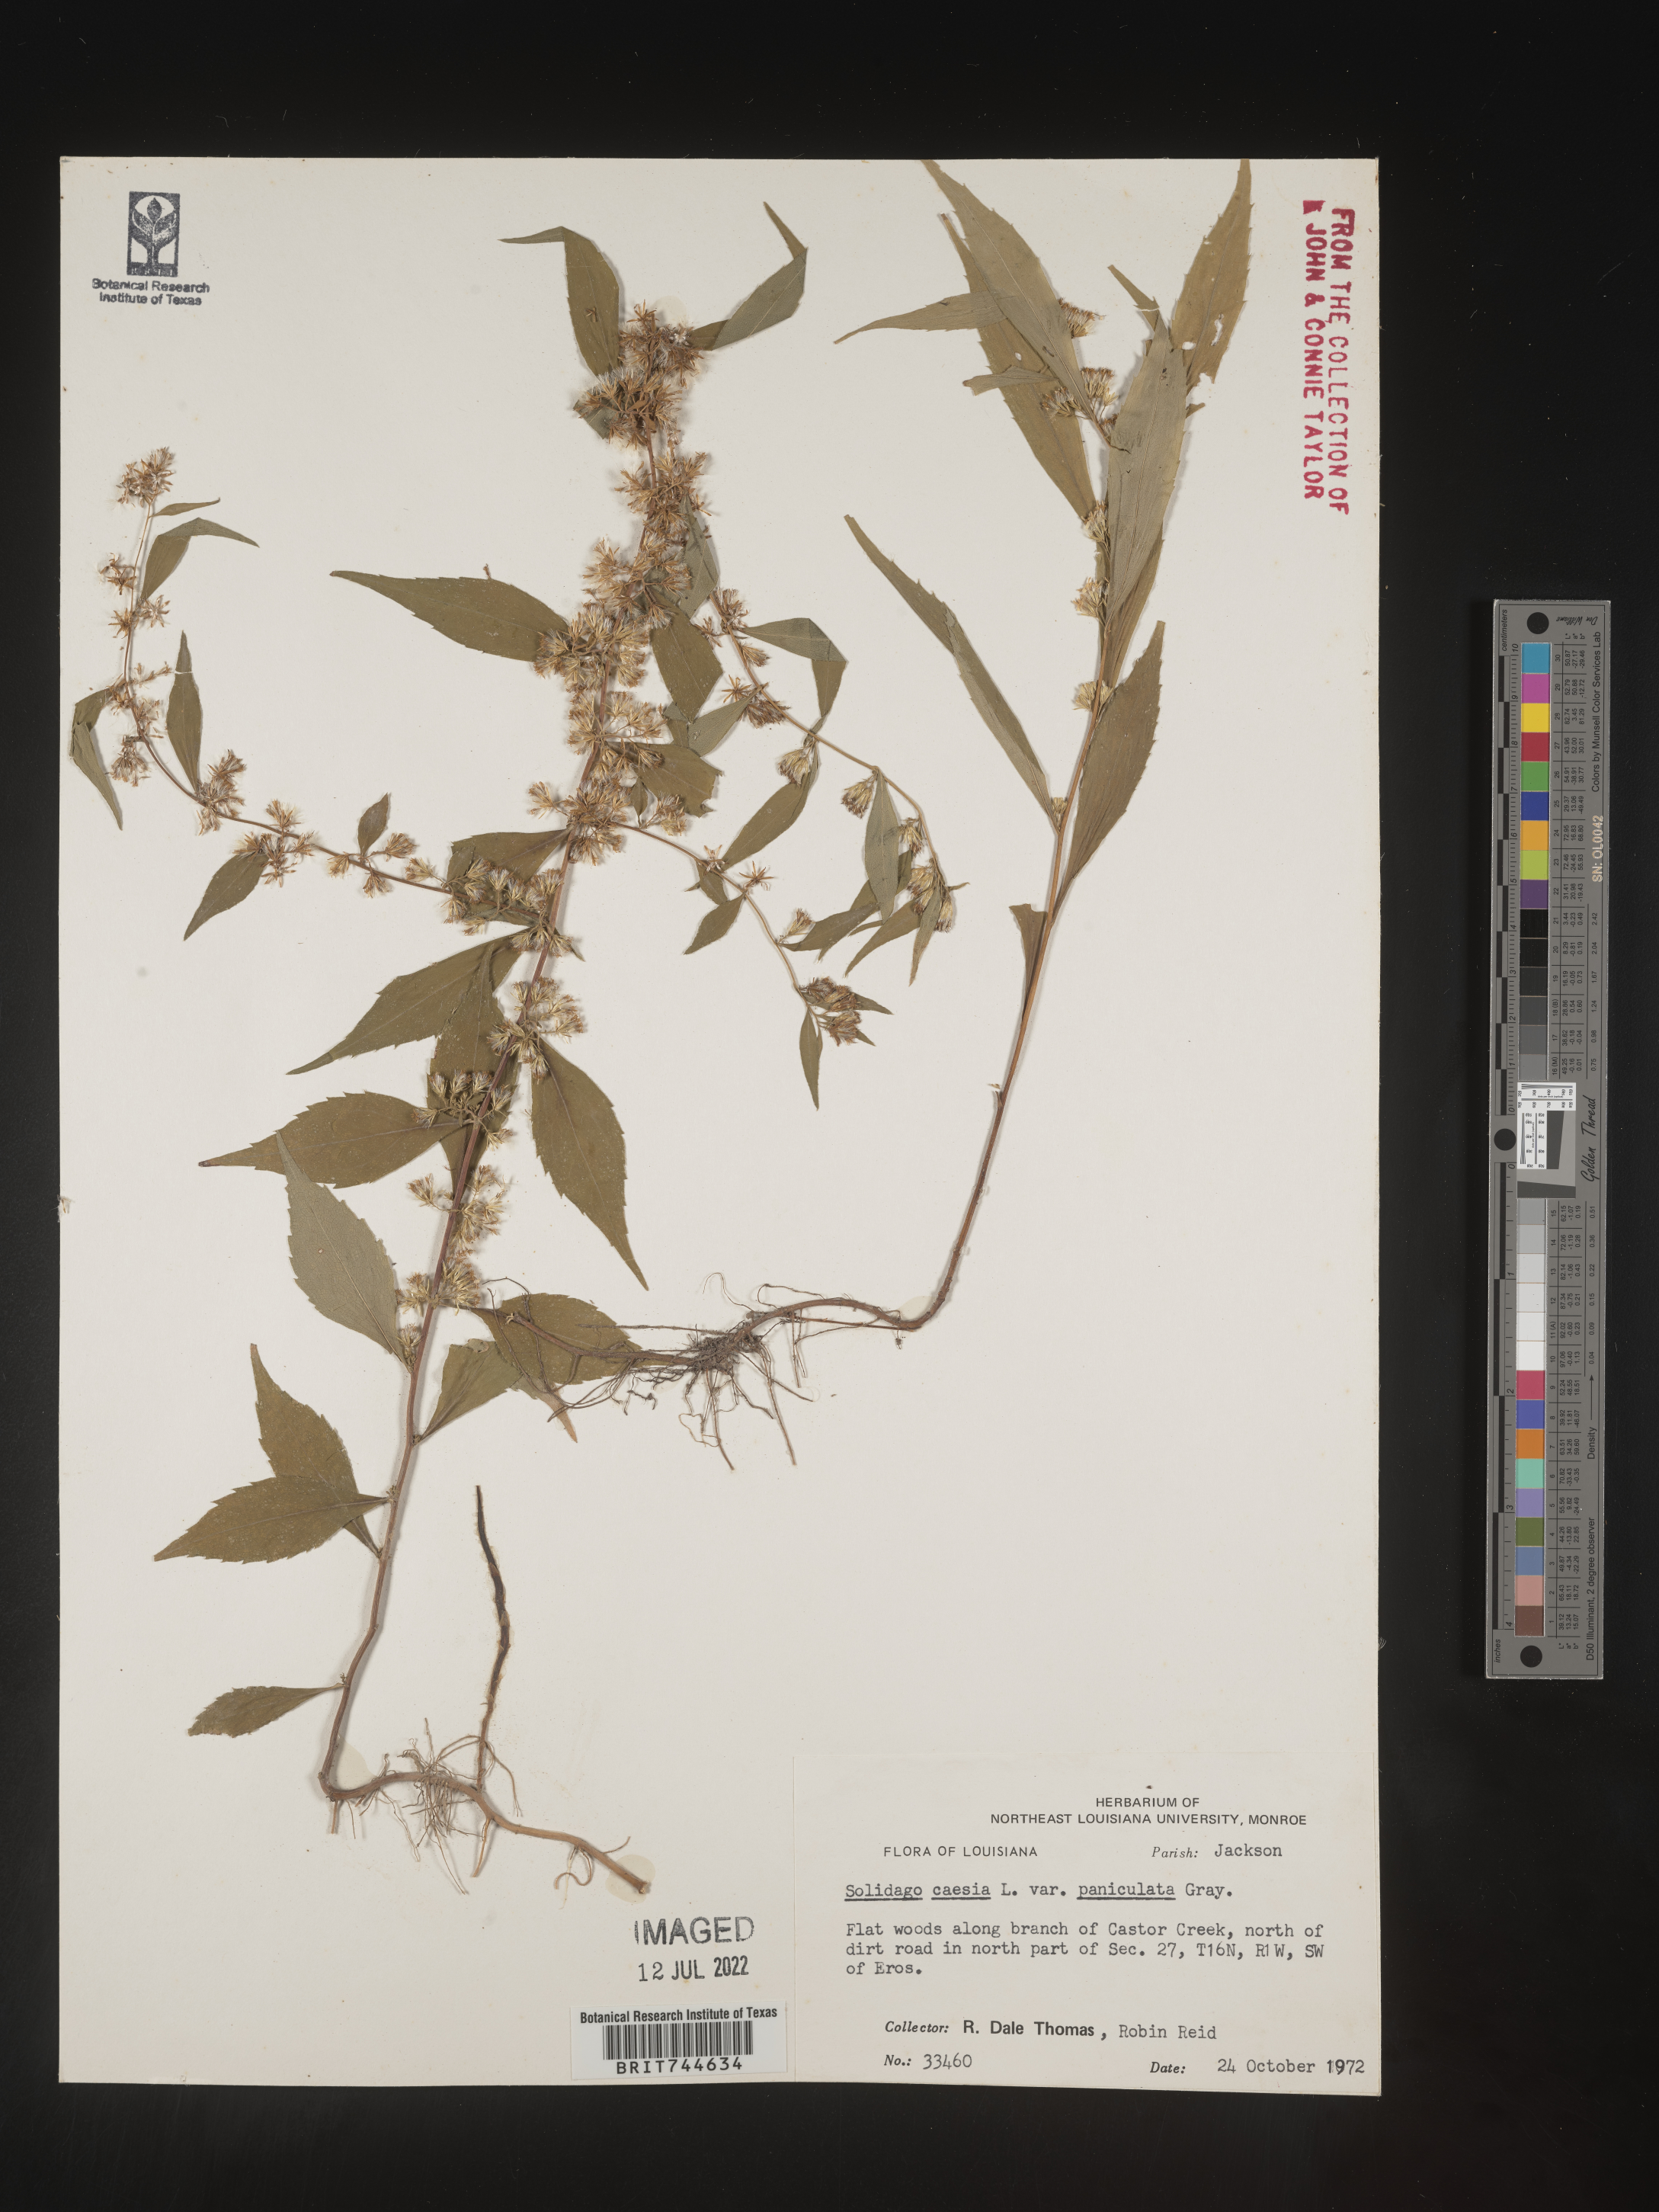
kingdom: Plantae
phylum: Tracheophyta
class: Magnoliopsida
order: Asterales
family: Asteraceae
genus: Solidago
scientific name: Solidago caesia
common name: Woodland goldenrod
